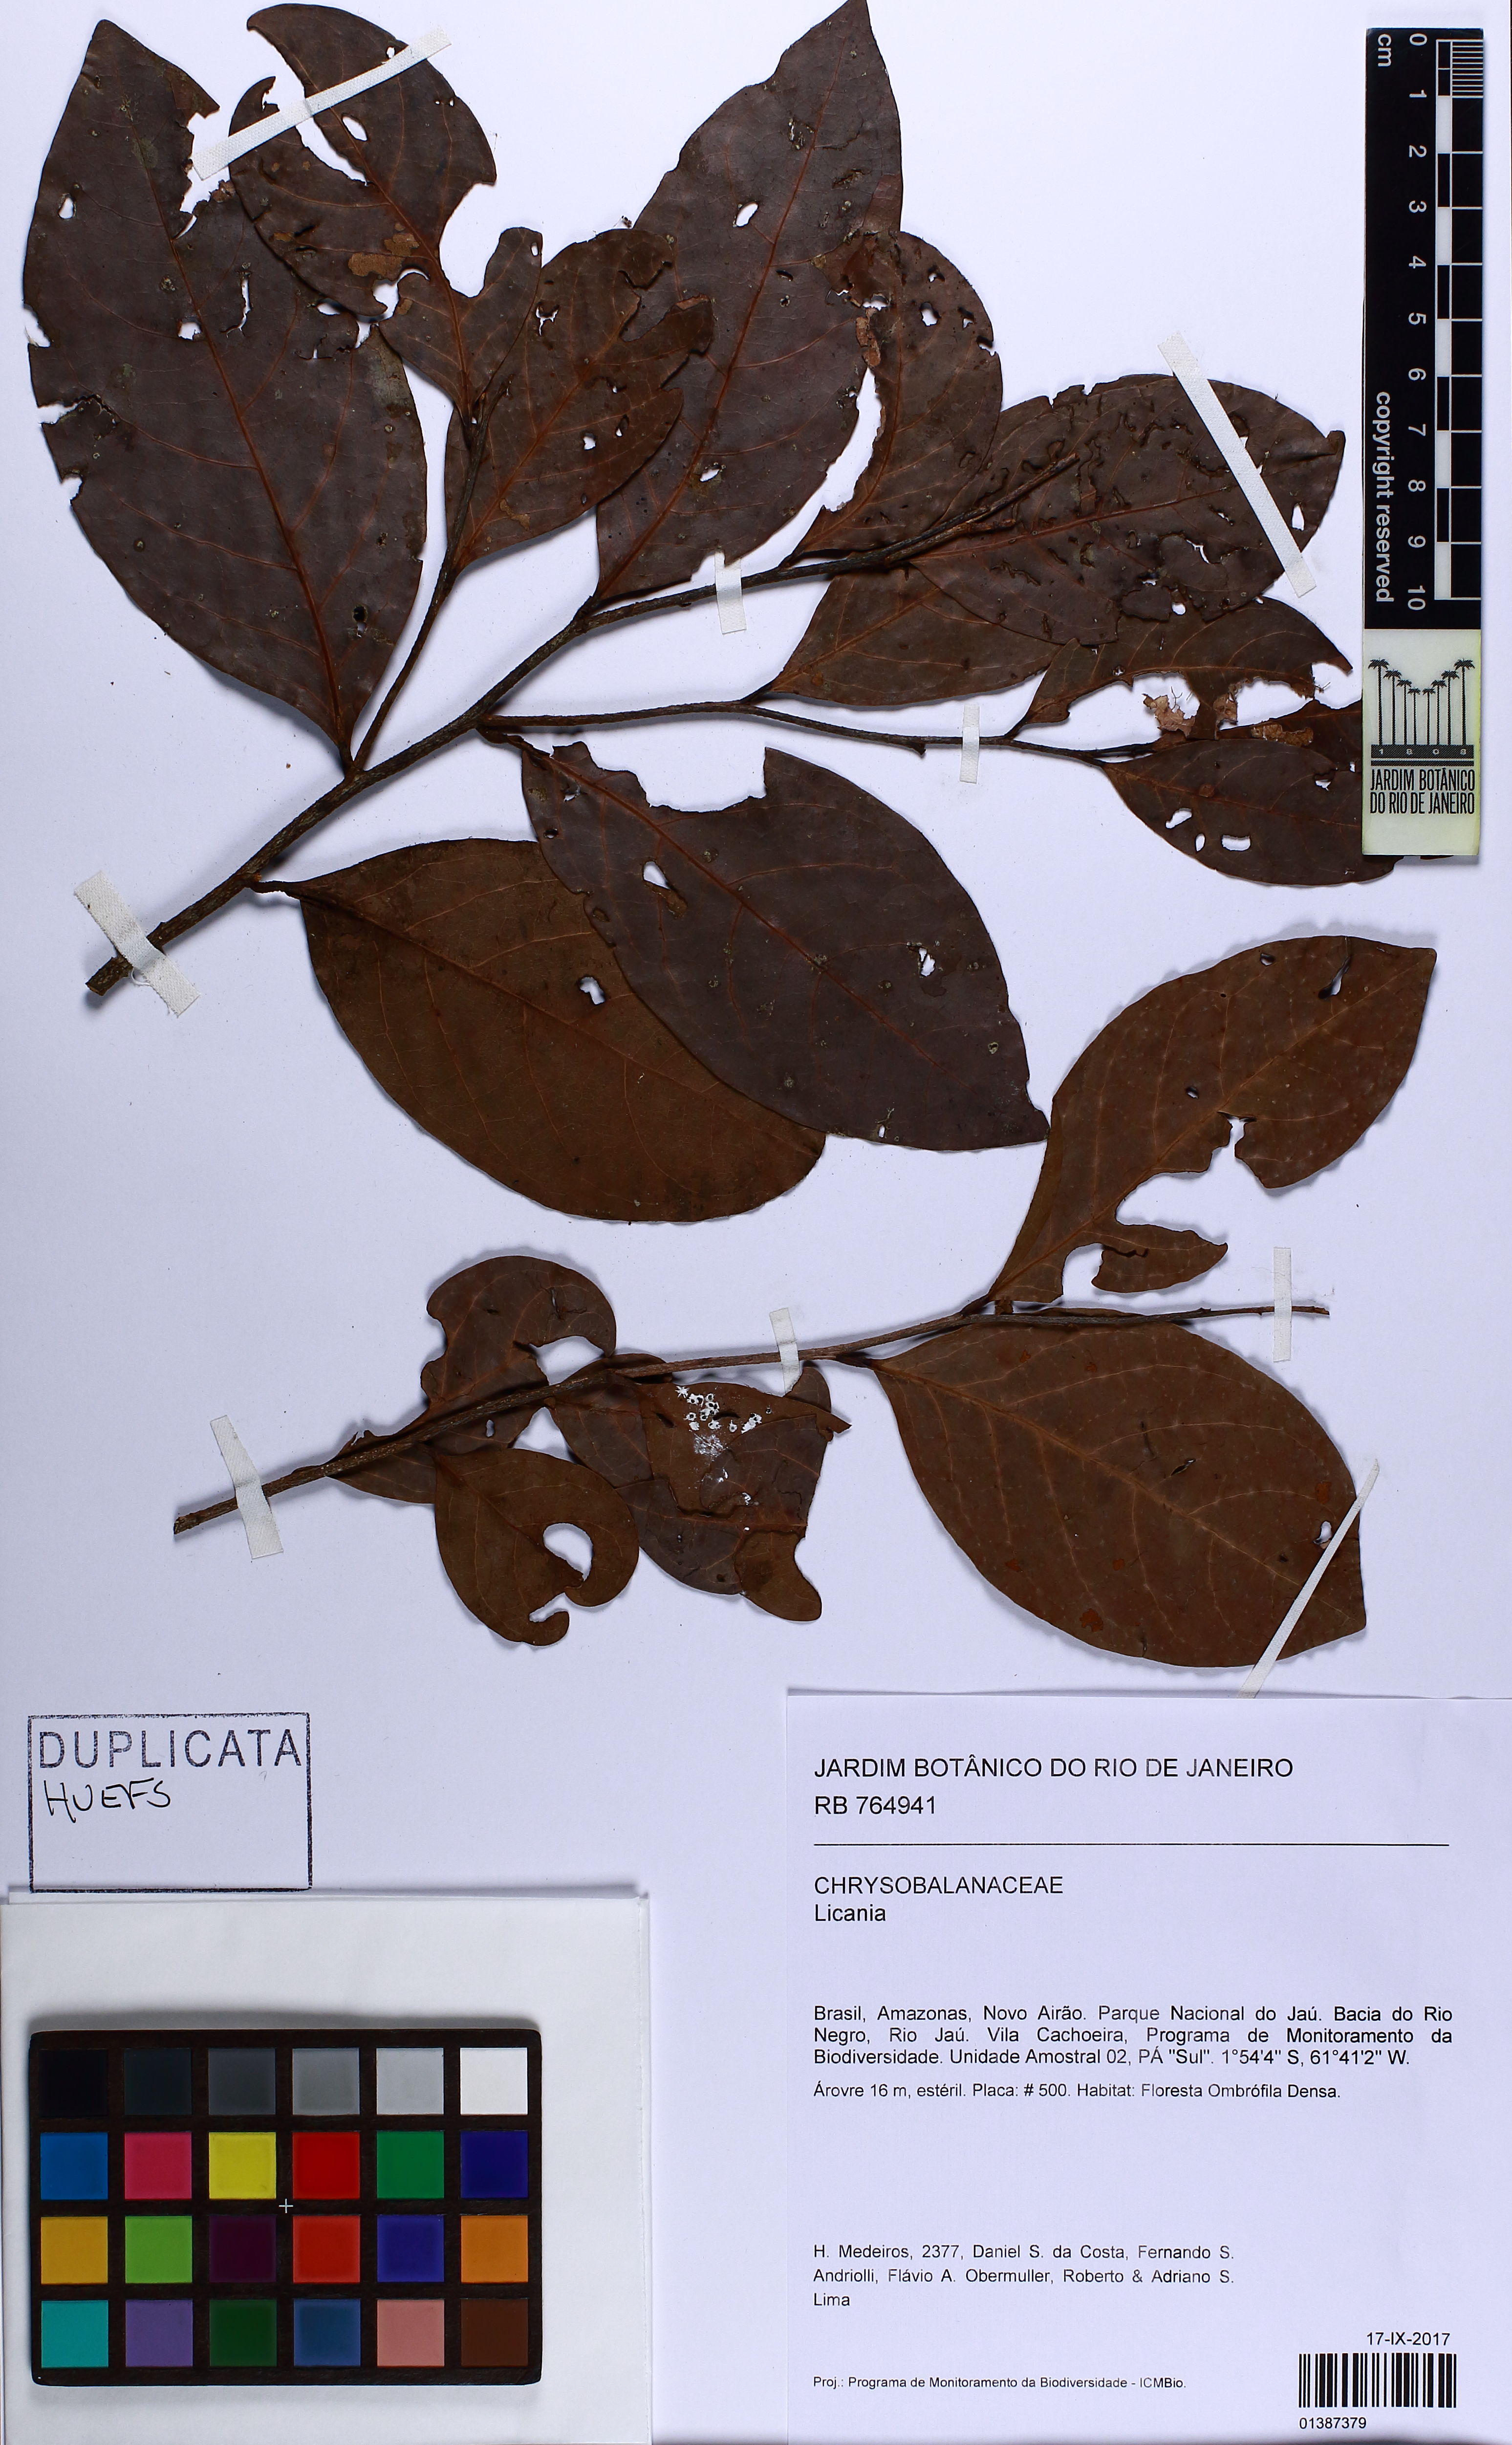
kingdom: Plantae
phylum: Tracheophyta
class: Magnoliopsida
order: Malpighiales
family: Chrysobalanaceae
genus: Licania
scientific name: Licania
